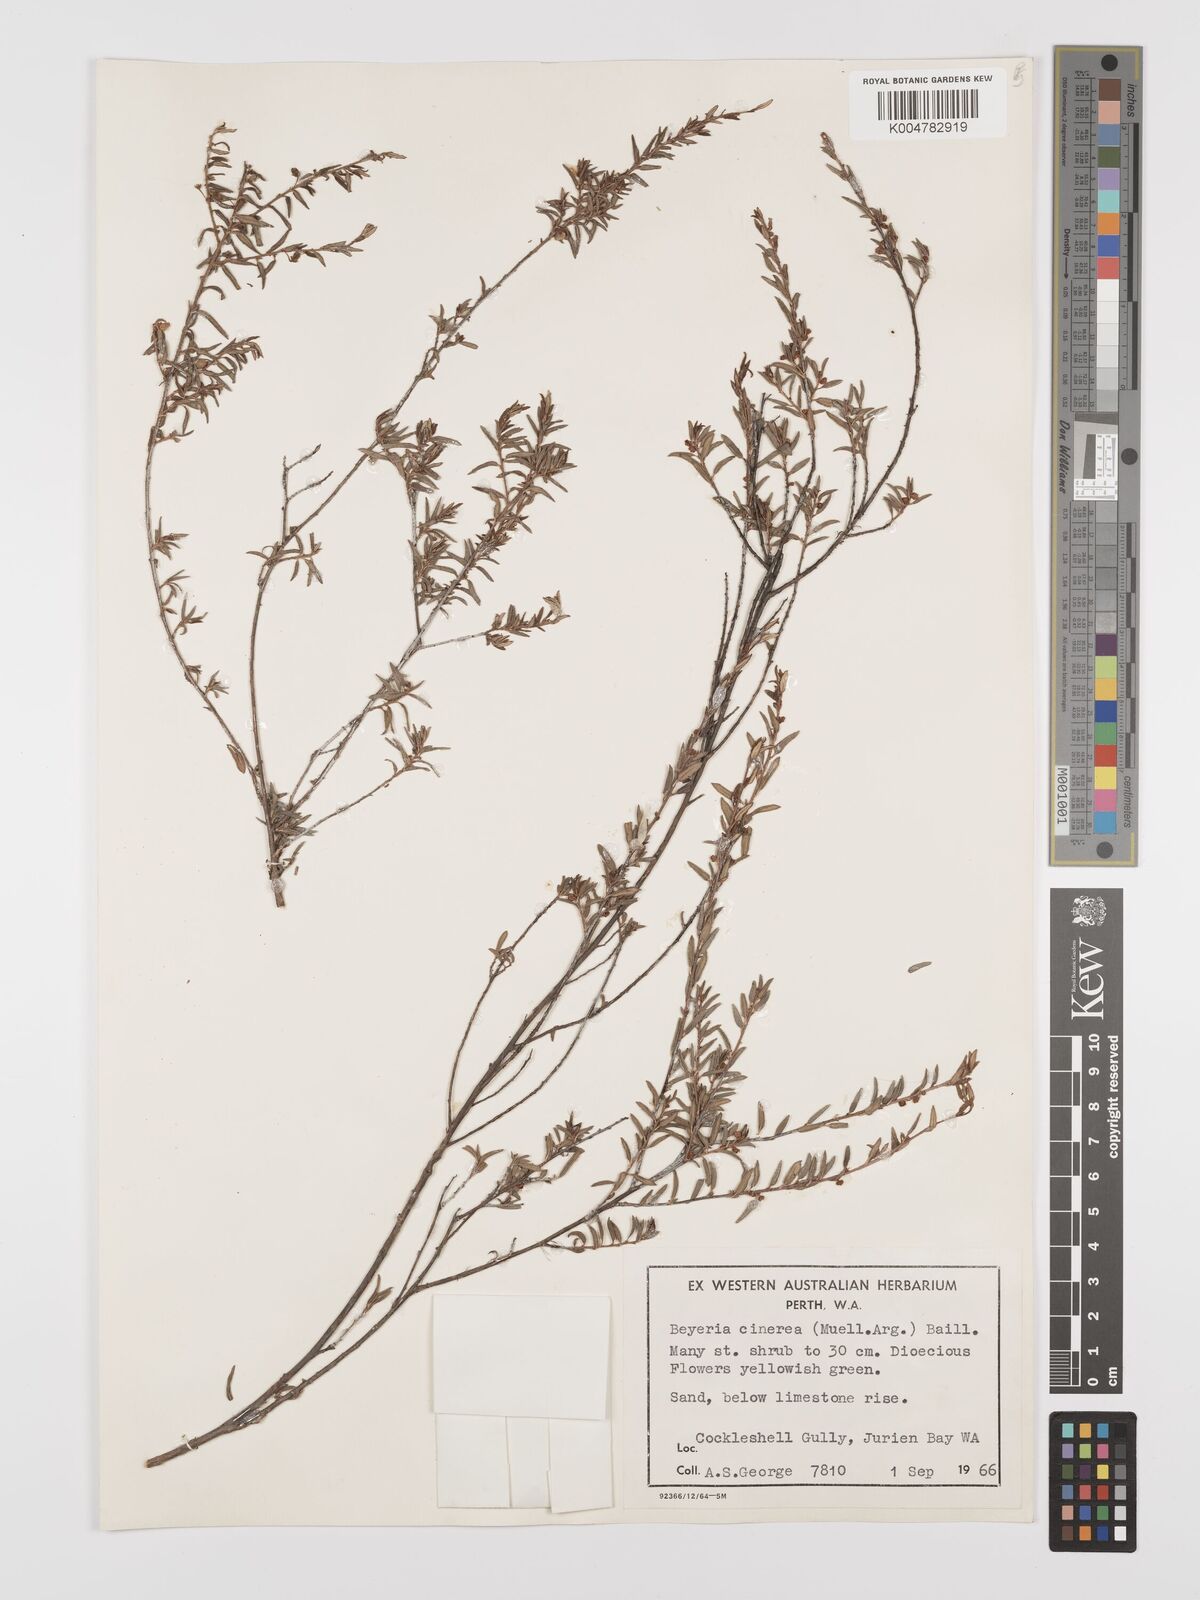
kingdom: Plantae
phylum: Tracheophyta
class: Magnoliopsida
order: Malpighiales
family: Euphorbiaceae
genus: Beyeria
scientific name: Beyeria cinerea
